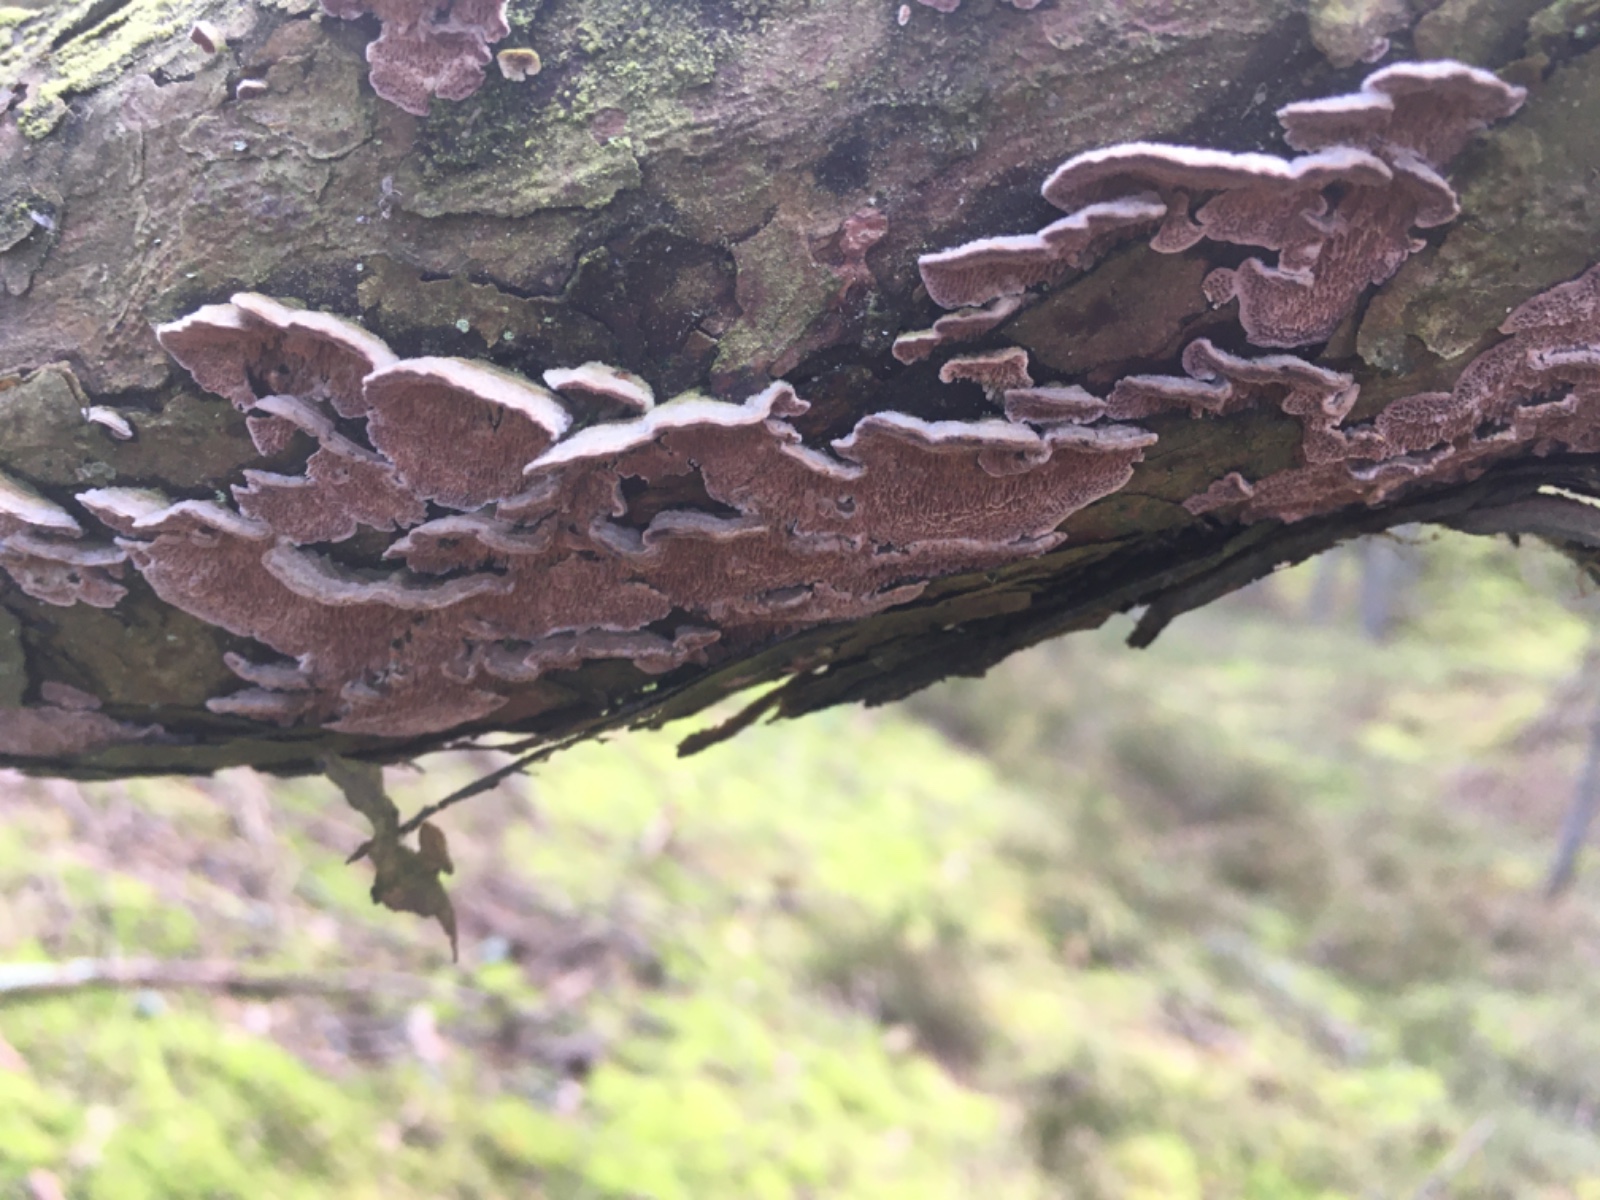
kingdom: Fungi
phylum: Basidiomycota
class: Agaricomycetes
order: Hymenochaetales
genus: Trichaptum
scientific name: Trichaptum fuscoviolaceum
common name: tandet violporesvamp
